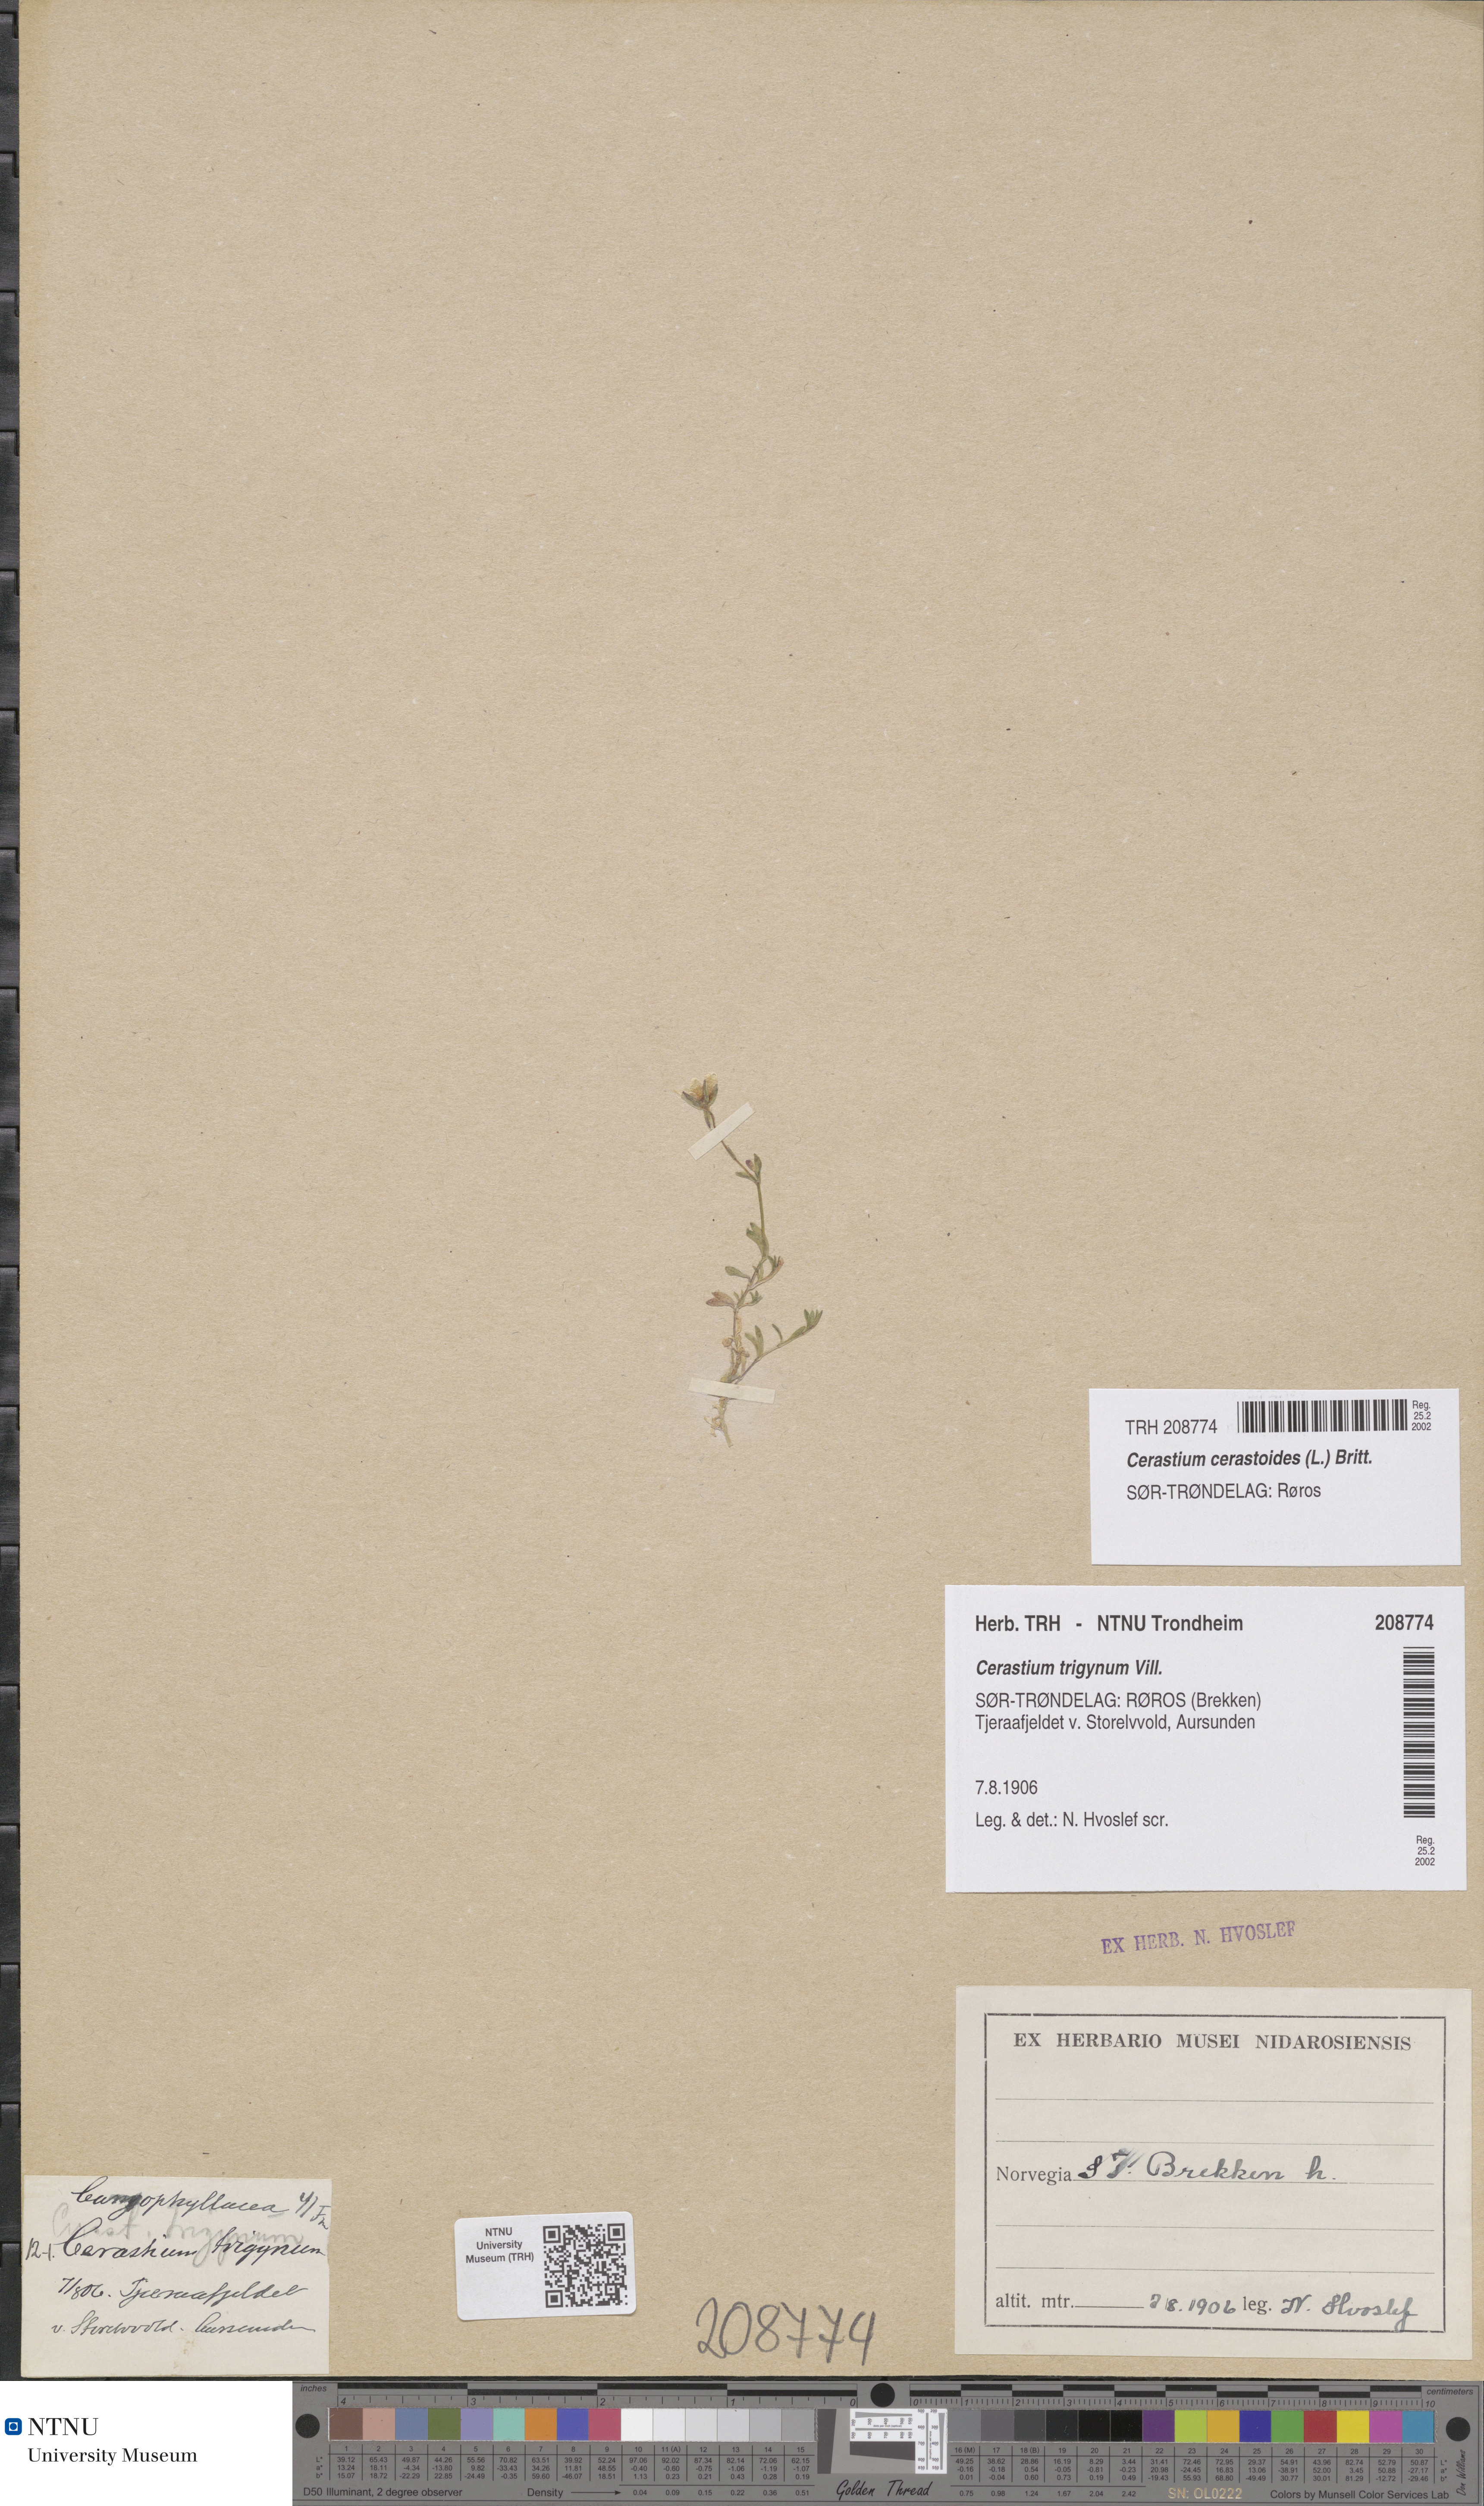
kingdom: Plantae
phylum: Tracheophyta
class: Magnoliopsida
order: Caryophyllales
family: Caryophyllaceae
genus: Dichodon
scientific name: Dichodon cerastoides
